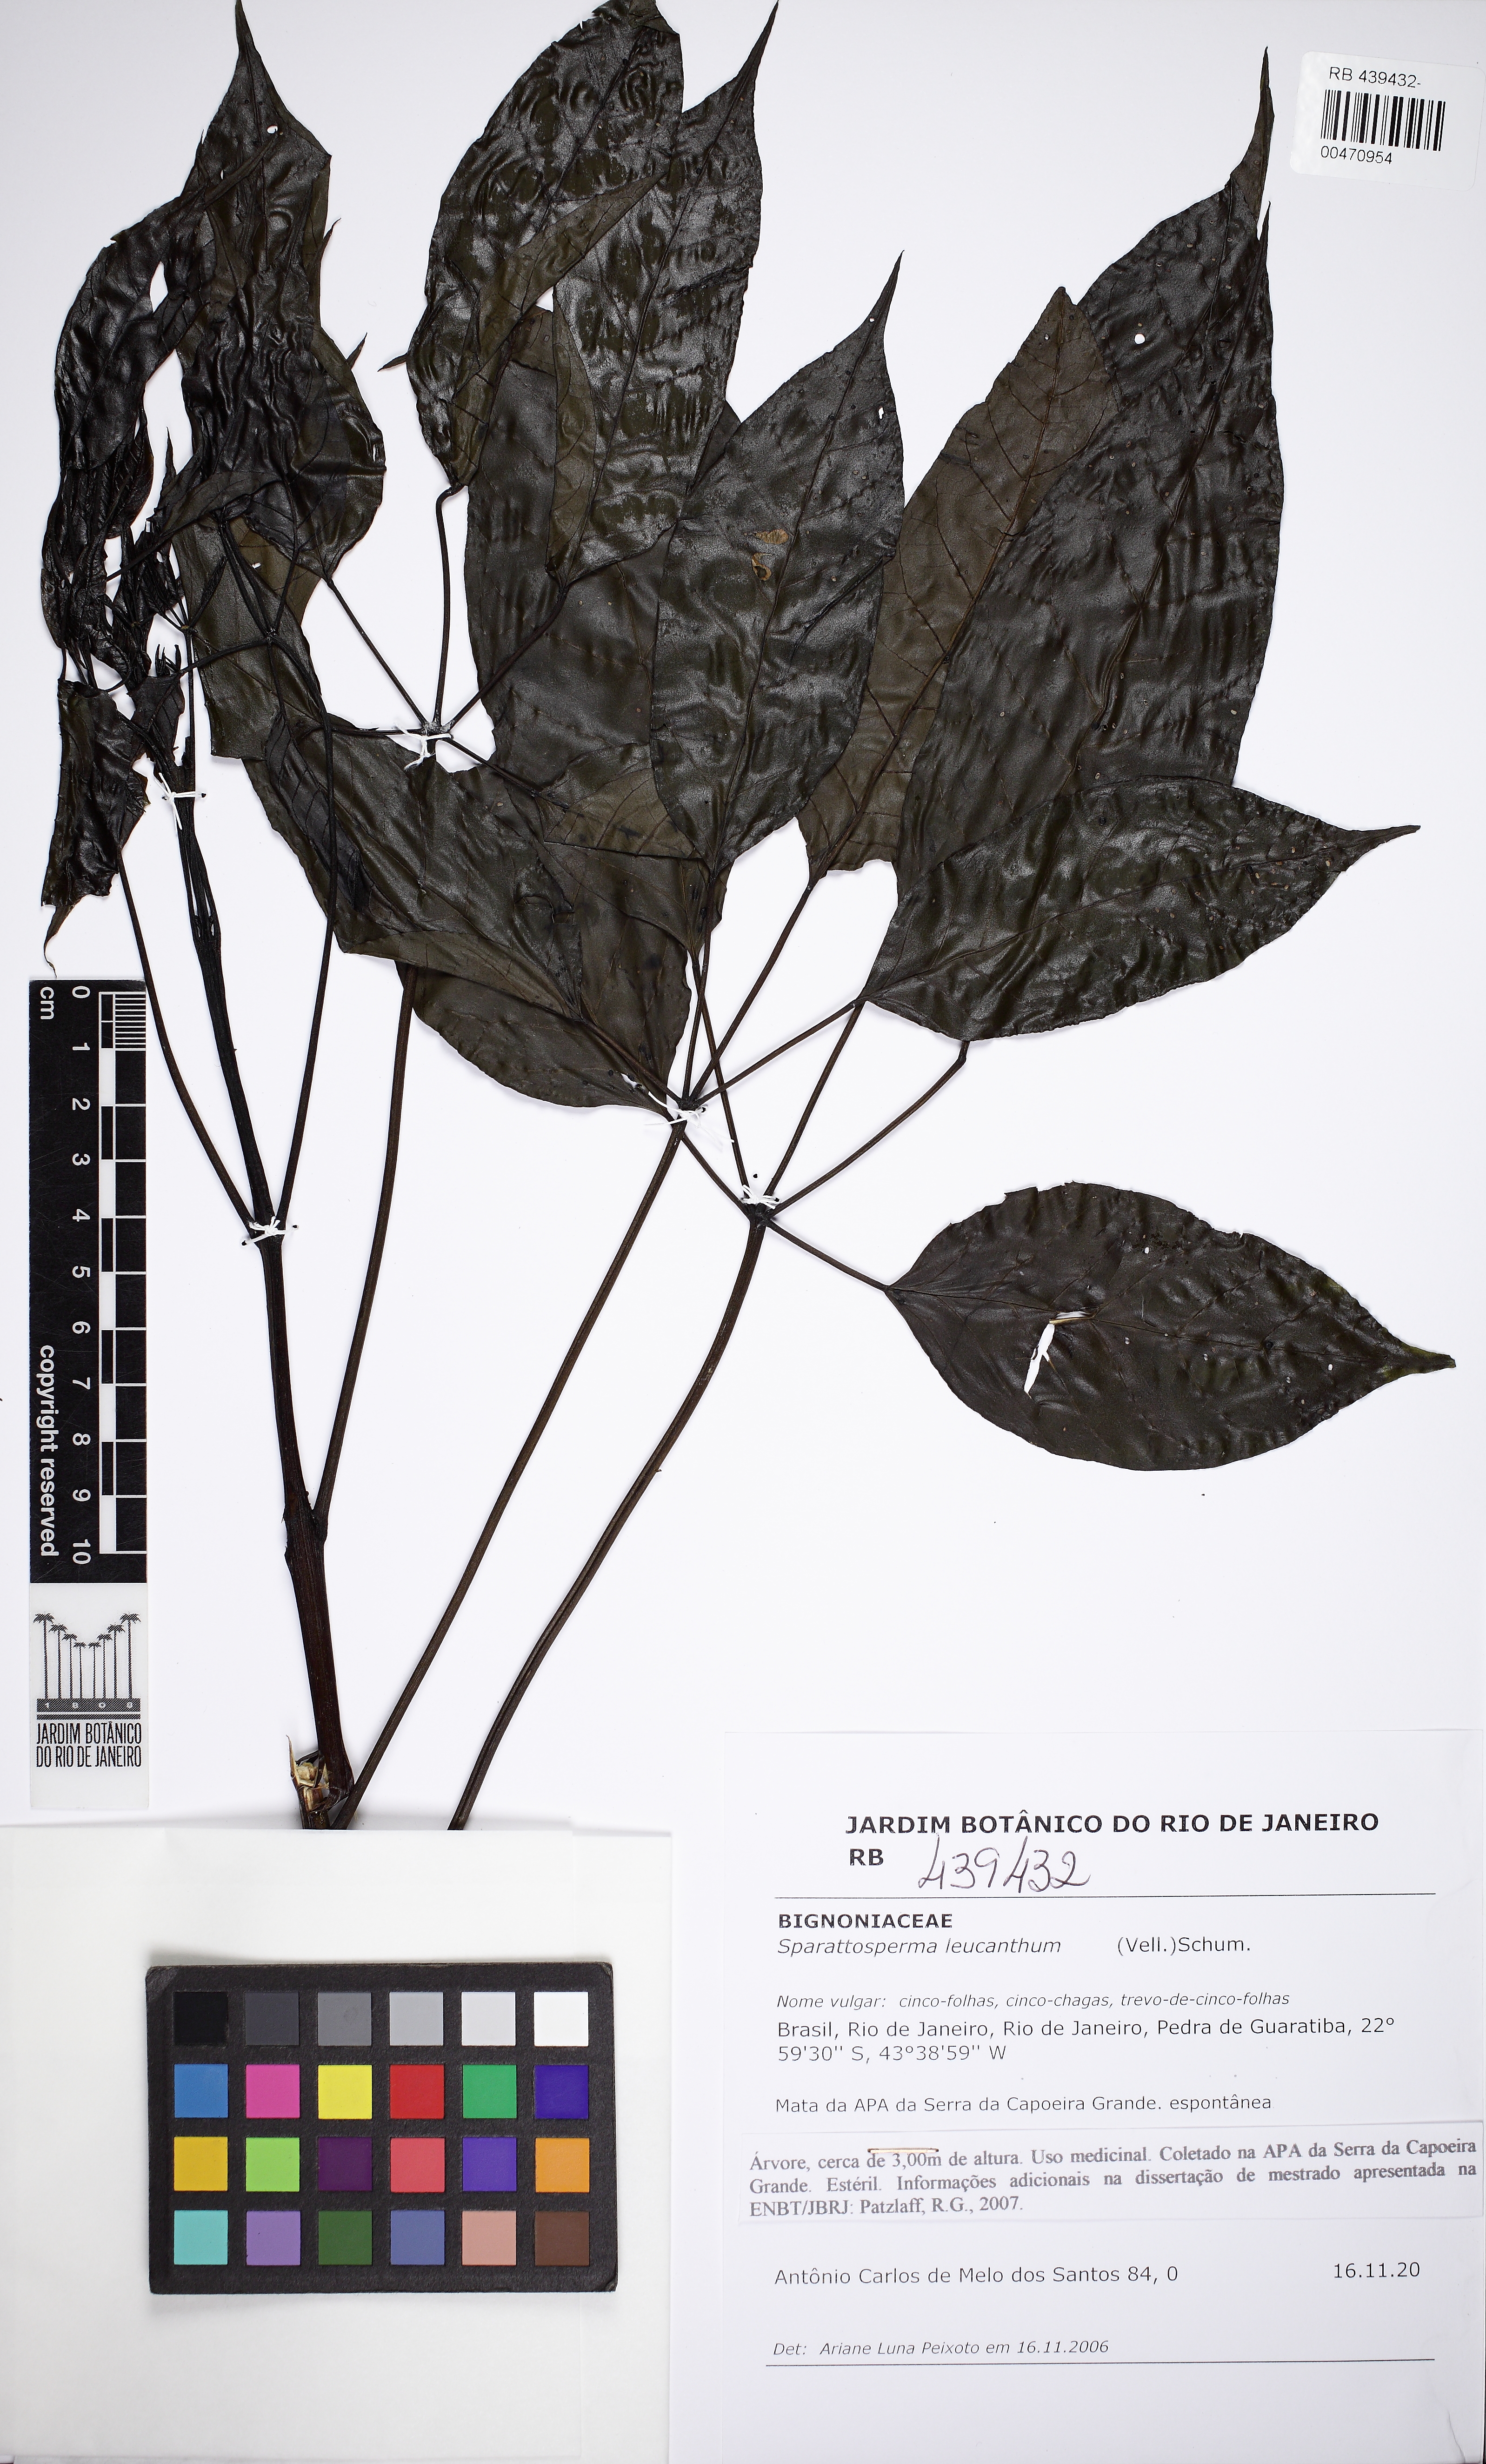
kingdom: Plantae
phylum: Tracheophyta
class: Magnoliopsida
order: Lamiales
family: Bignoniaceae
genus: Sparattosperma
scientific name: Sparattosperma leucanthum
